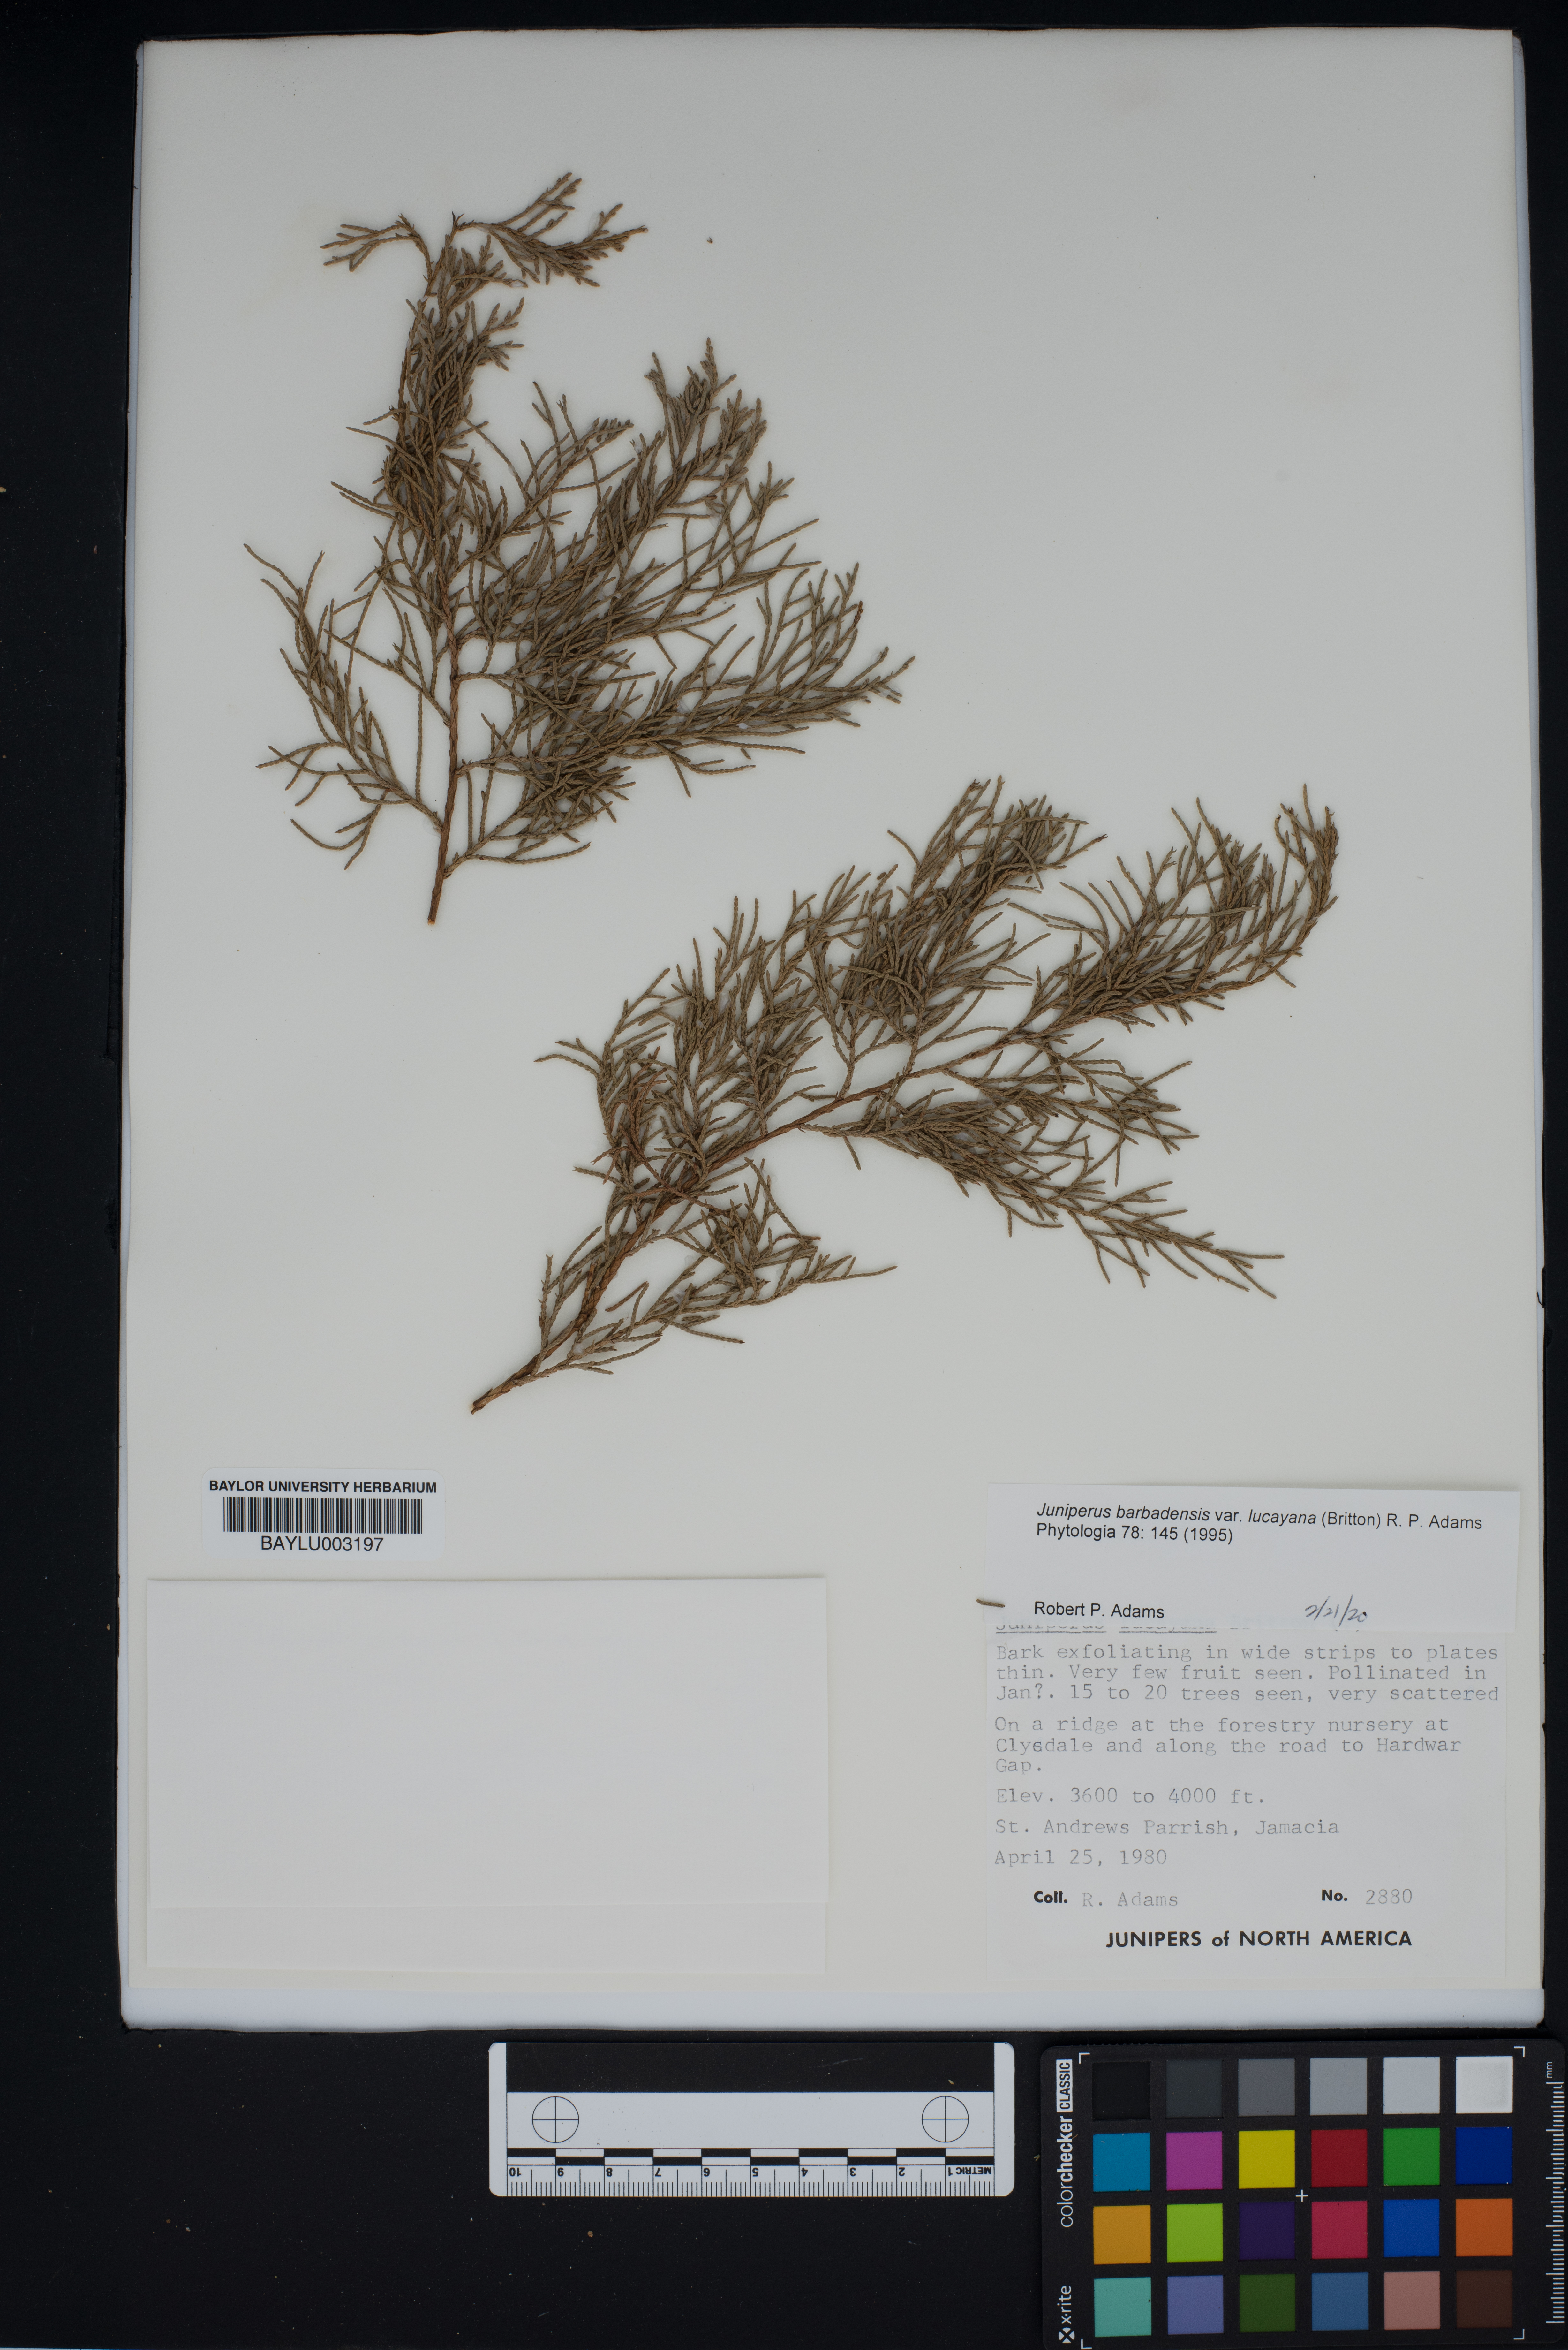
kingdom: Plantae
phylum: Tracheophyta
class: Pinopsida
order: Pinales
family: Cupressaceae
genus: Juniperus
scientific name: Juniperus barbadensis
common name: West indies juniper
